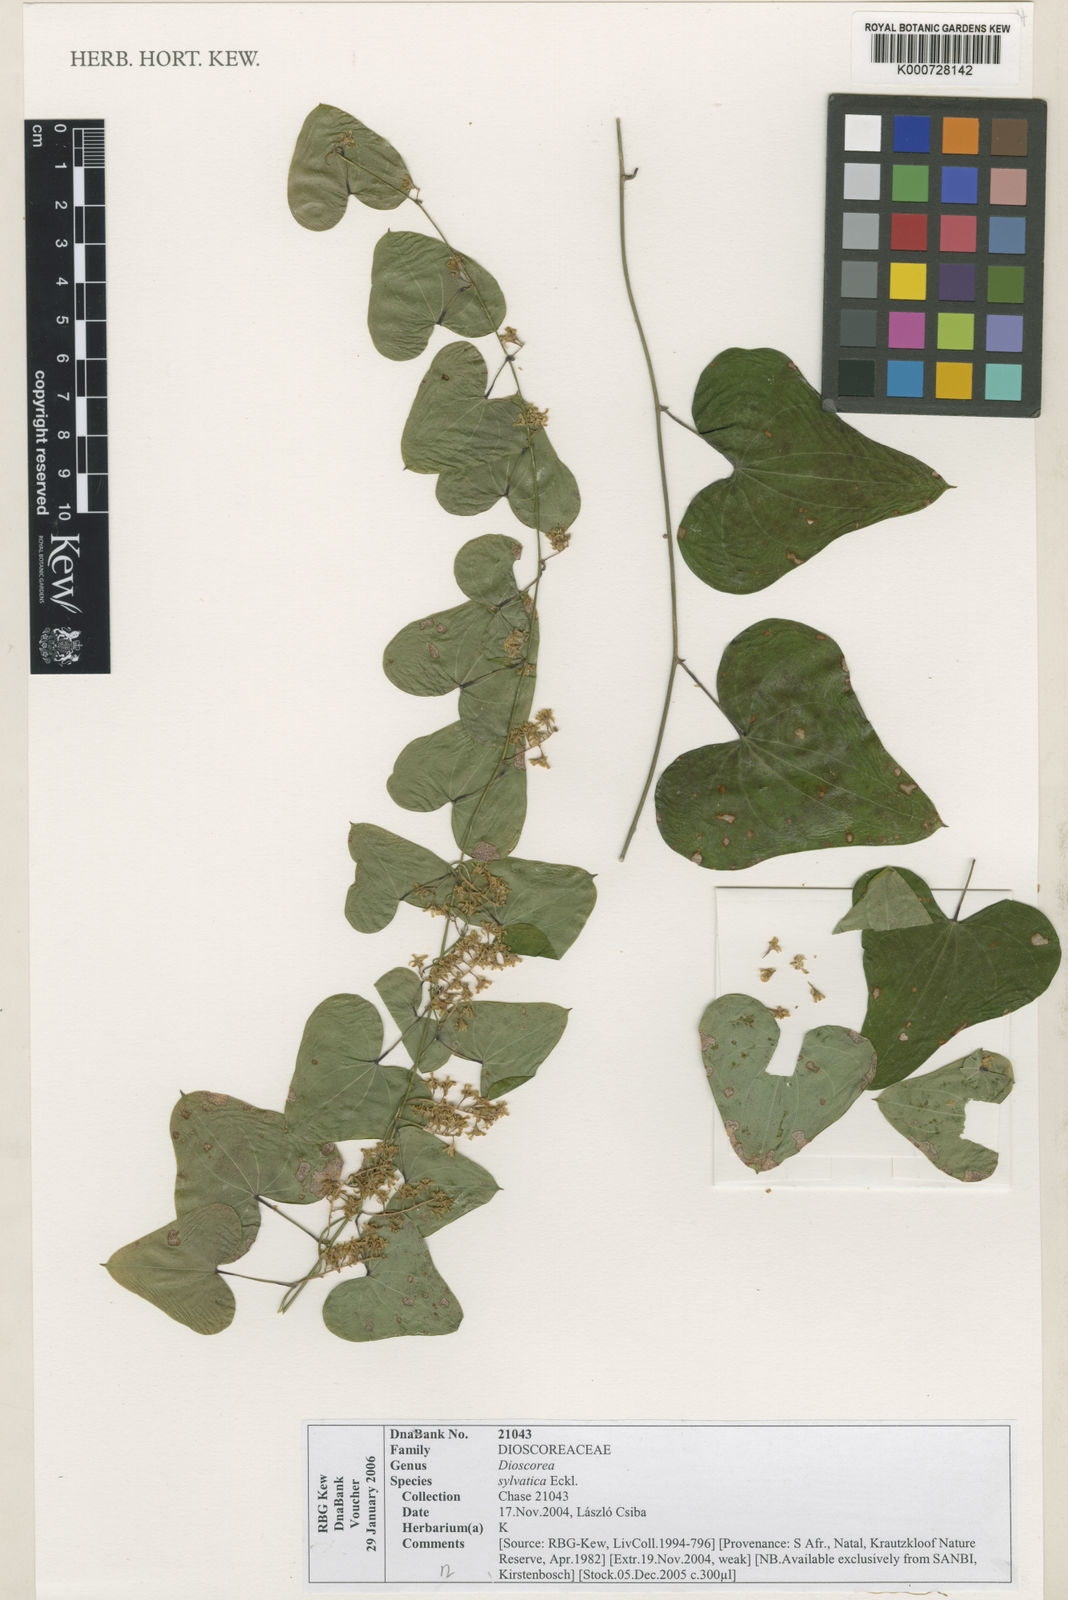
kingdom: Plantae
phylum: Tracheophyta
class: Liliopsida
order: Dioscoreales
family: Dioscoreaceae
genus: Dioscorea
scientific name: Dioscorea sylvatica
